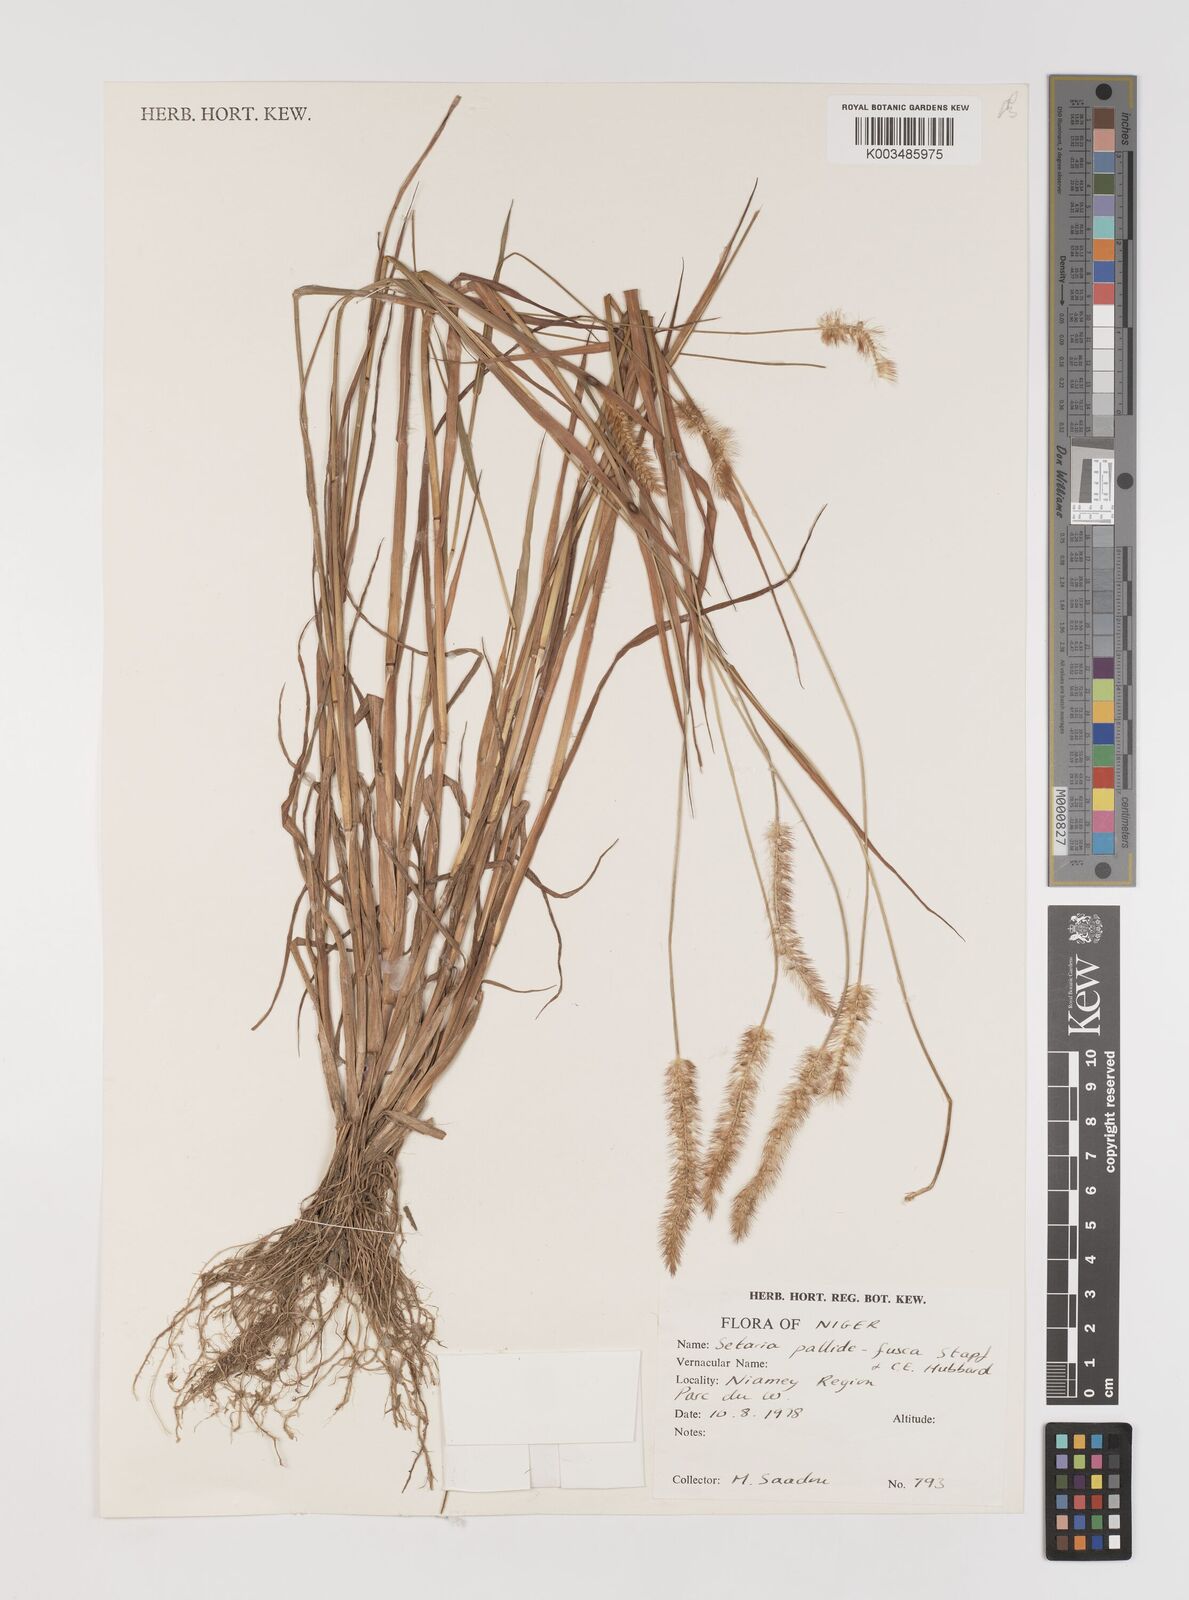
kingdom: Plantae
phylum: Tracheophyta
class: Liliopsida
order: Poales
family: Poaceae
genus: Setaria
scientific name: Setaria pumila
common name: Yellow bristle-grass
